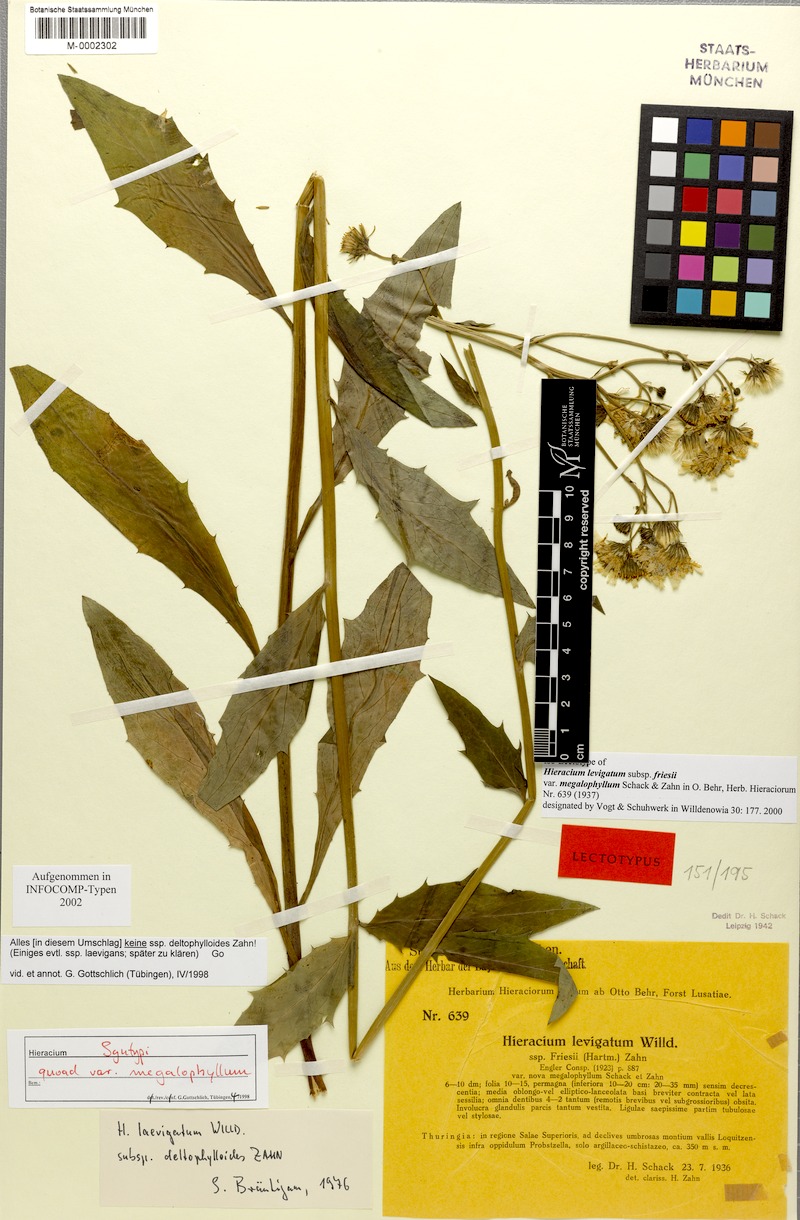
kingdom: Plantae
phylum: Tracheophyta
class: Magnoliopsida
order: Asterales
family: Asteraceae
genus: Hieracium
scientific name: Hieracium laevigatum
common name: Smooth hawkweed
